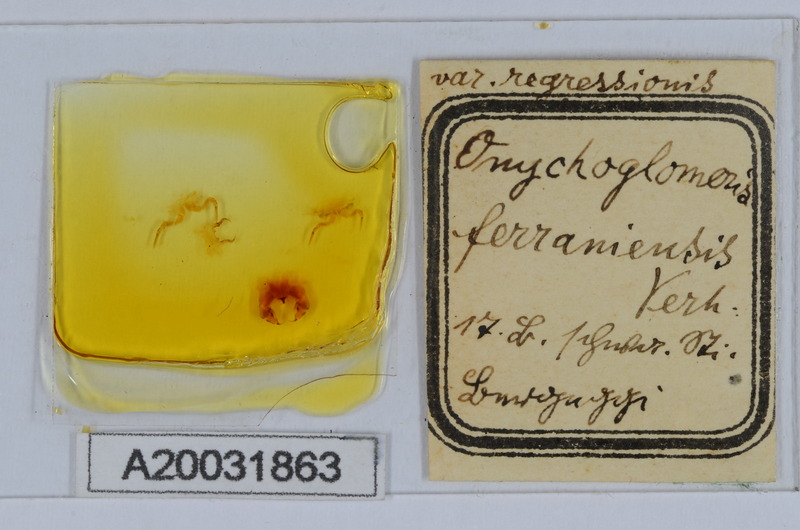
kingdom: Animalia
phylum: Arthropoda
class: Diplopoda
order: Glomerida
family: Glomeridae
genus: Onychoglomeris
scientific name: Onychoglomeris ferraniensis
